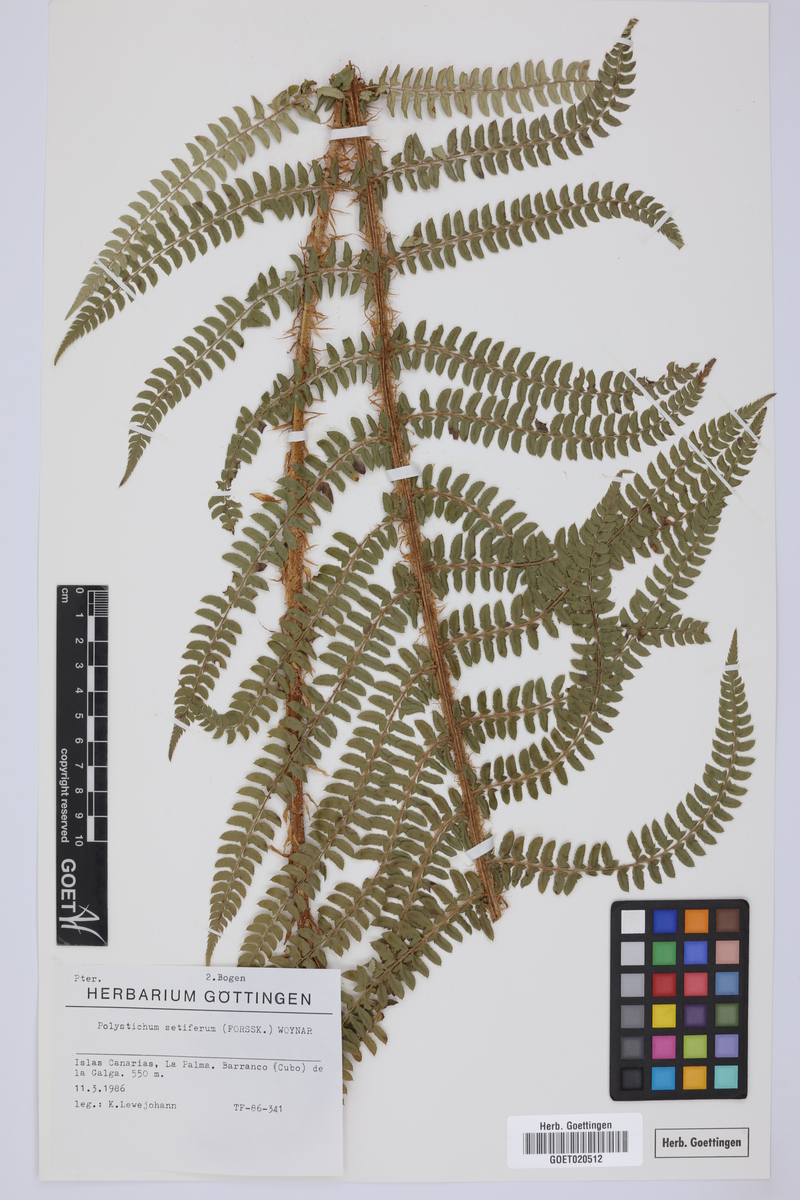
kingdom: Plantae
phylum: Tracheophyta
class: Polypodiopsida
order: Polypodiales
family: Dryopteridaceae
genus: Polystichum
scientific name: Polystichum setiferum
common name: Soft shield-fern
